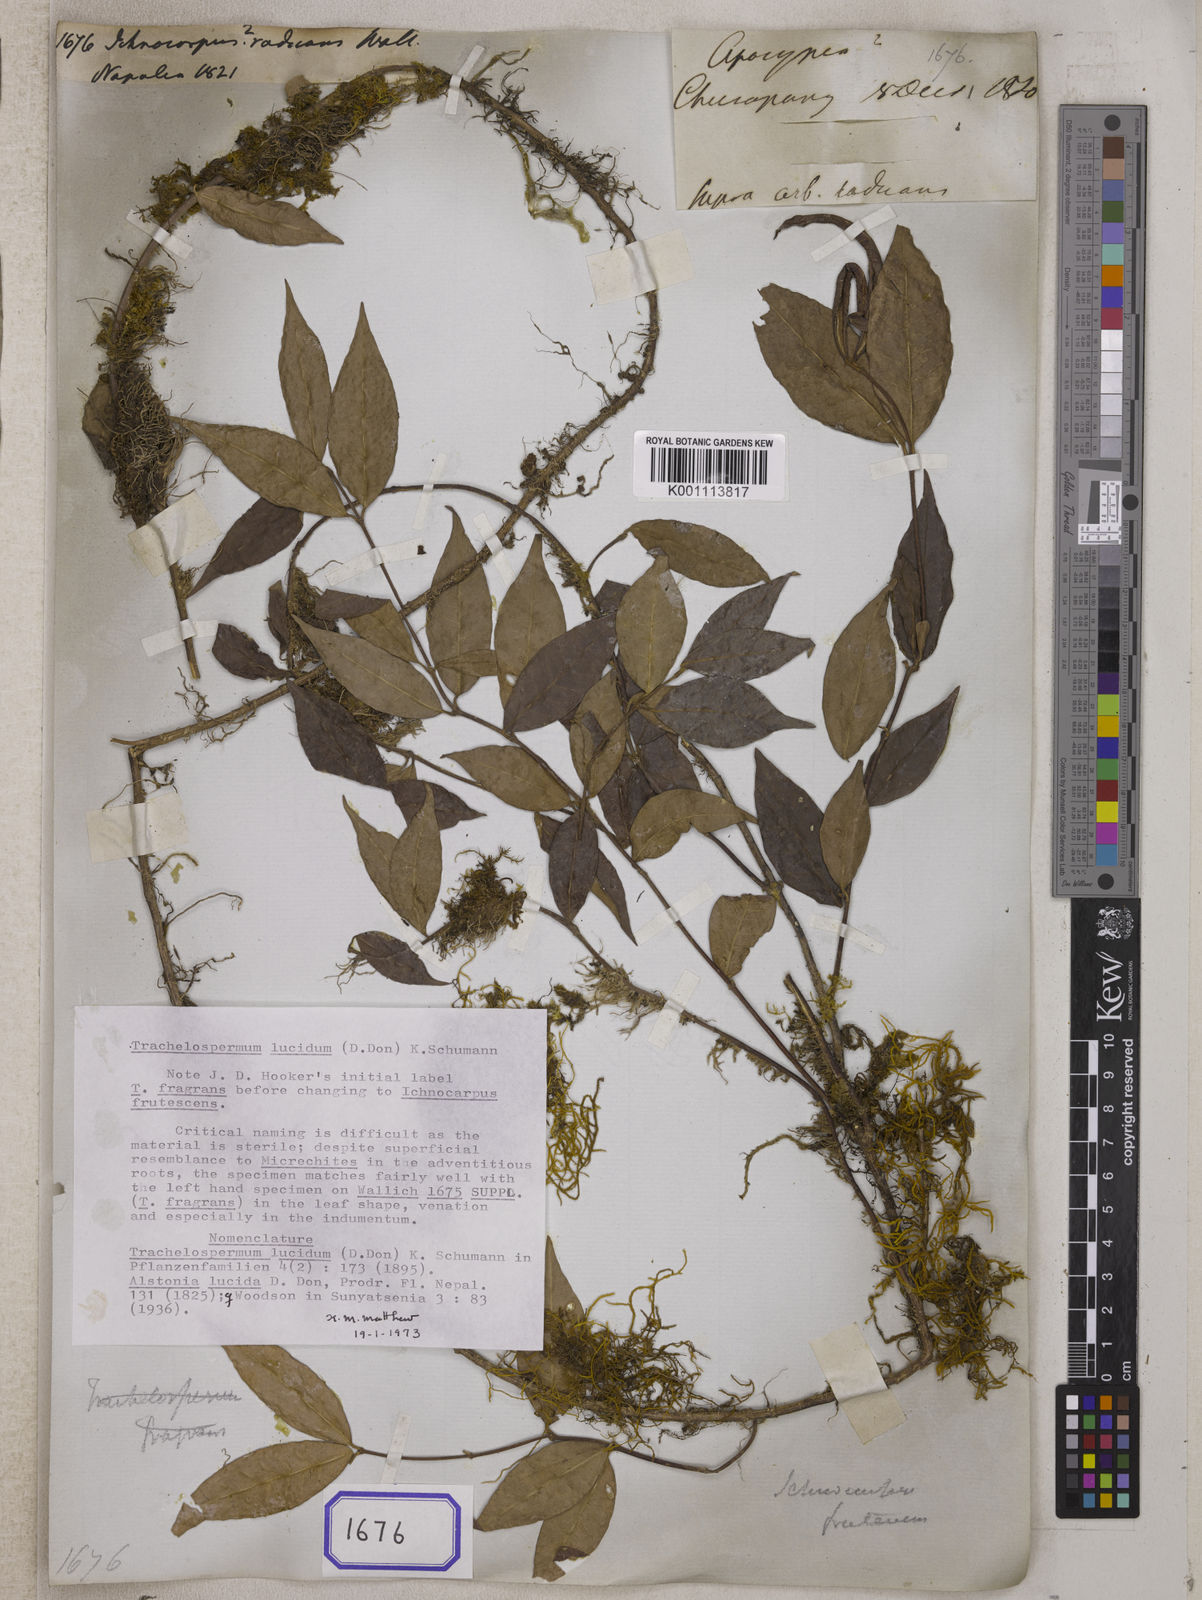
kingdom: Plantae
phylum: Tracheophyta
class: Magnoliopsida
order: Gentianales
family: Apocynaceae
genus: Micrechites
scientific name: Micrechites polyantha
